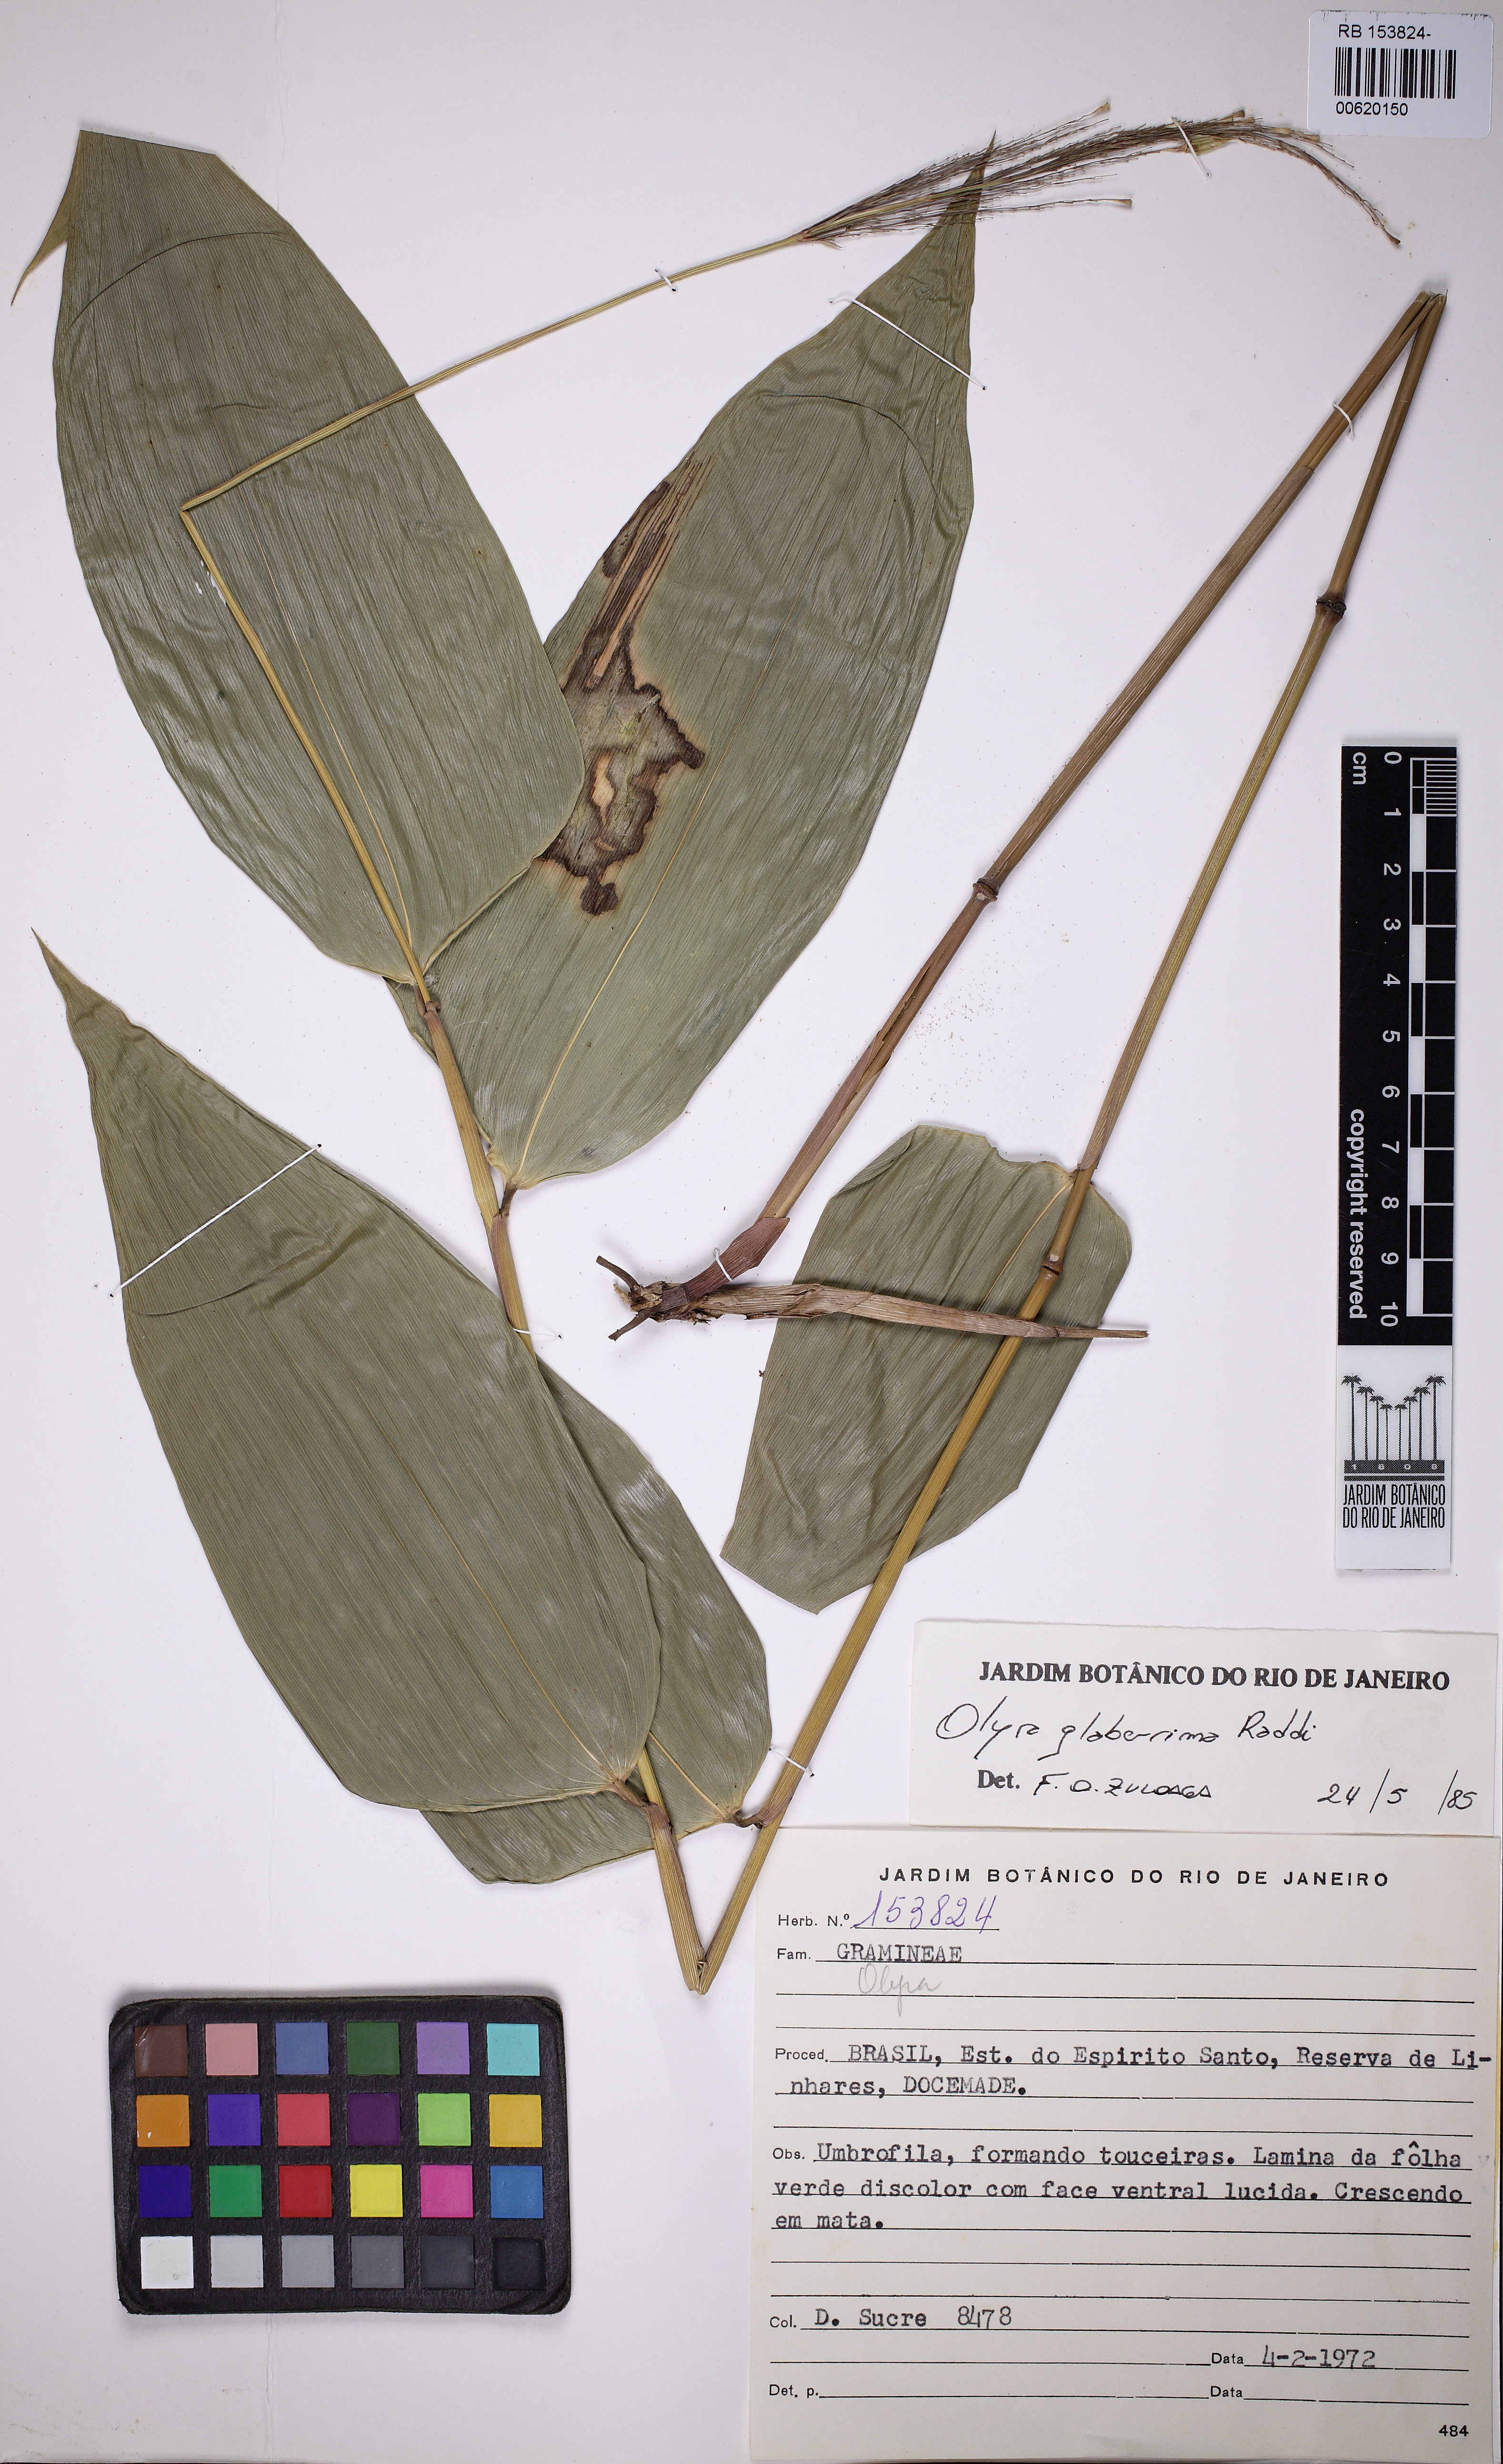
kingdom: Plantae
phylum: Tracheophyta
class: Liliopsida
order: Poales
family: Poaceae
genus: Olyra
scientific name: Olyra glaberrima
